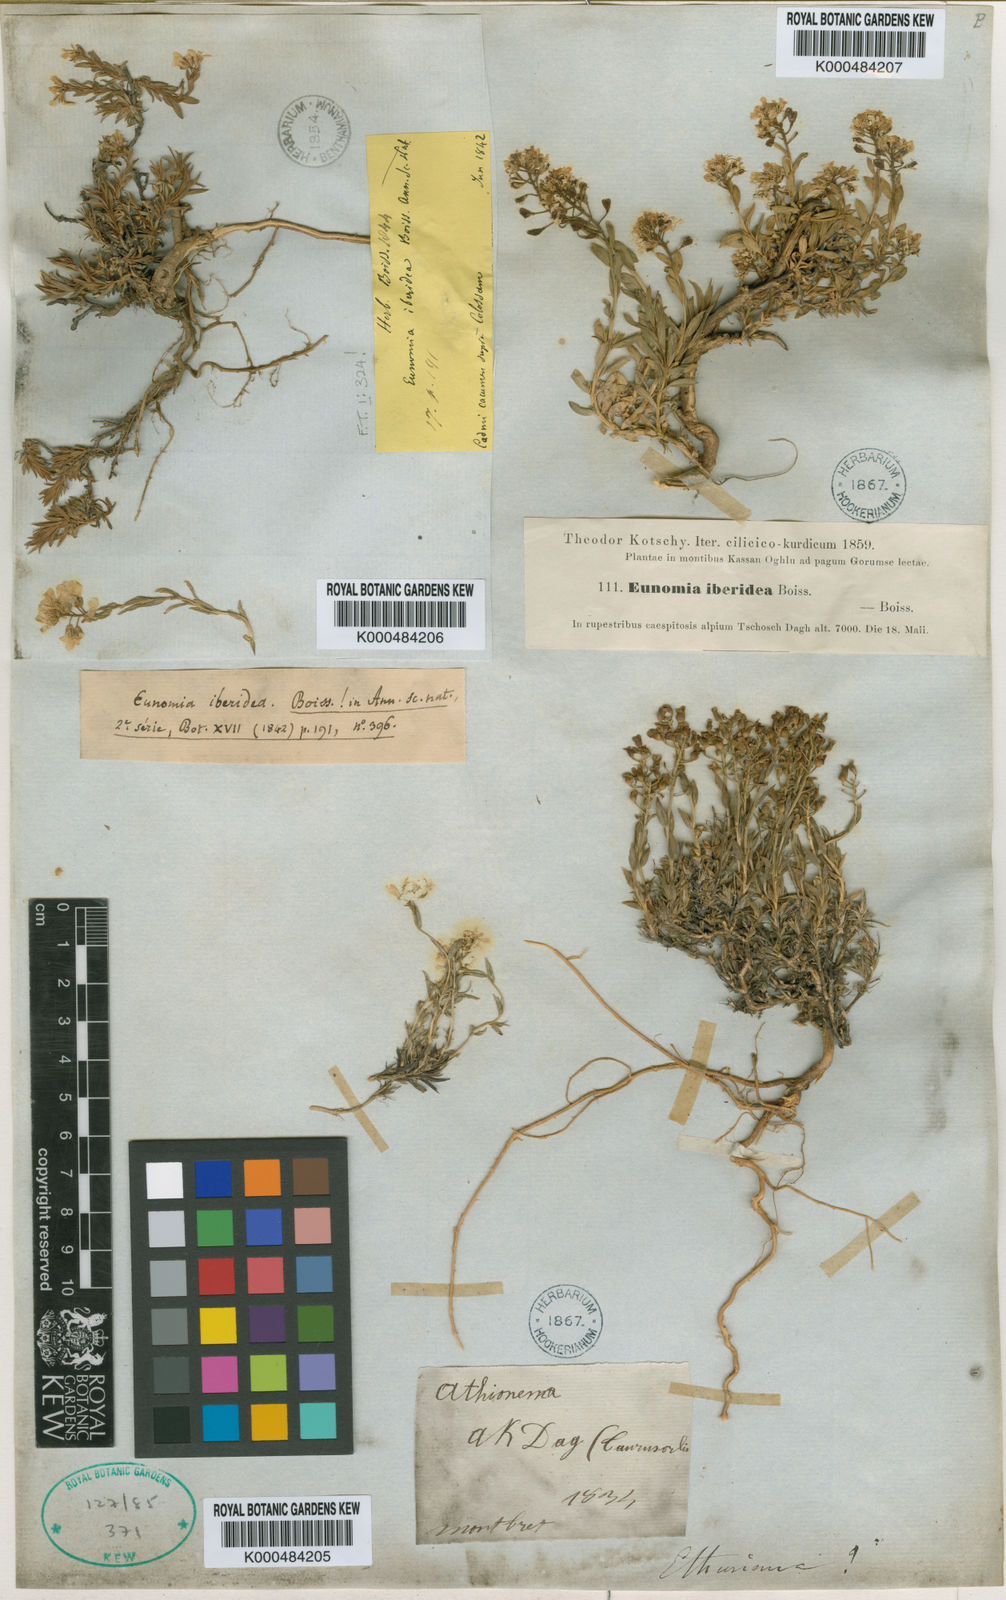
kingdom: Plantae
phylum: Tracheophyta
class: Magnoliopsida
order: Brassicales
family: Brassicaceae
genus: Noccaea
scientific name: Noccaea iberidea
